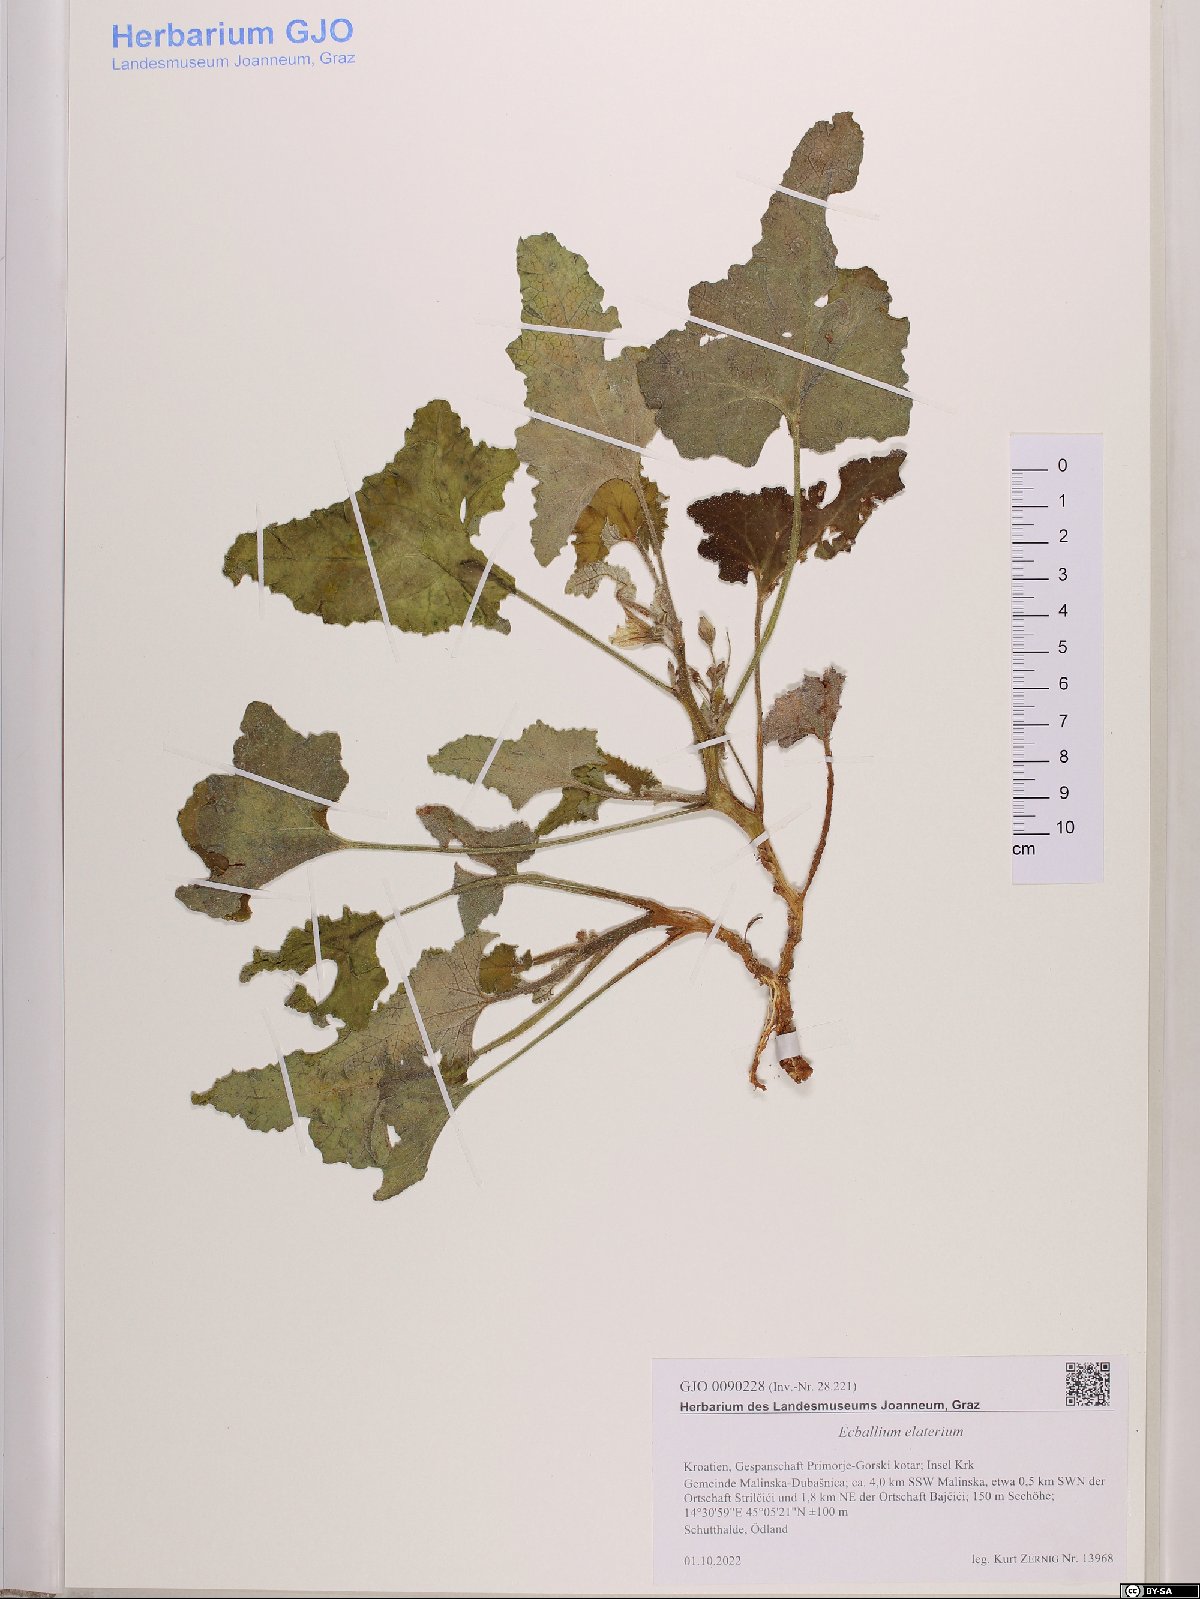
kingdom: Plantae
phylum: Tracheophyta
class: Magnoliopsida
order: Cucurbitales
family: Cucurbitaceae
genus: Ecballium
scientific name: Ecballium elaterium
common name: Squirting cucumber
